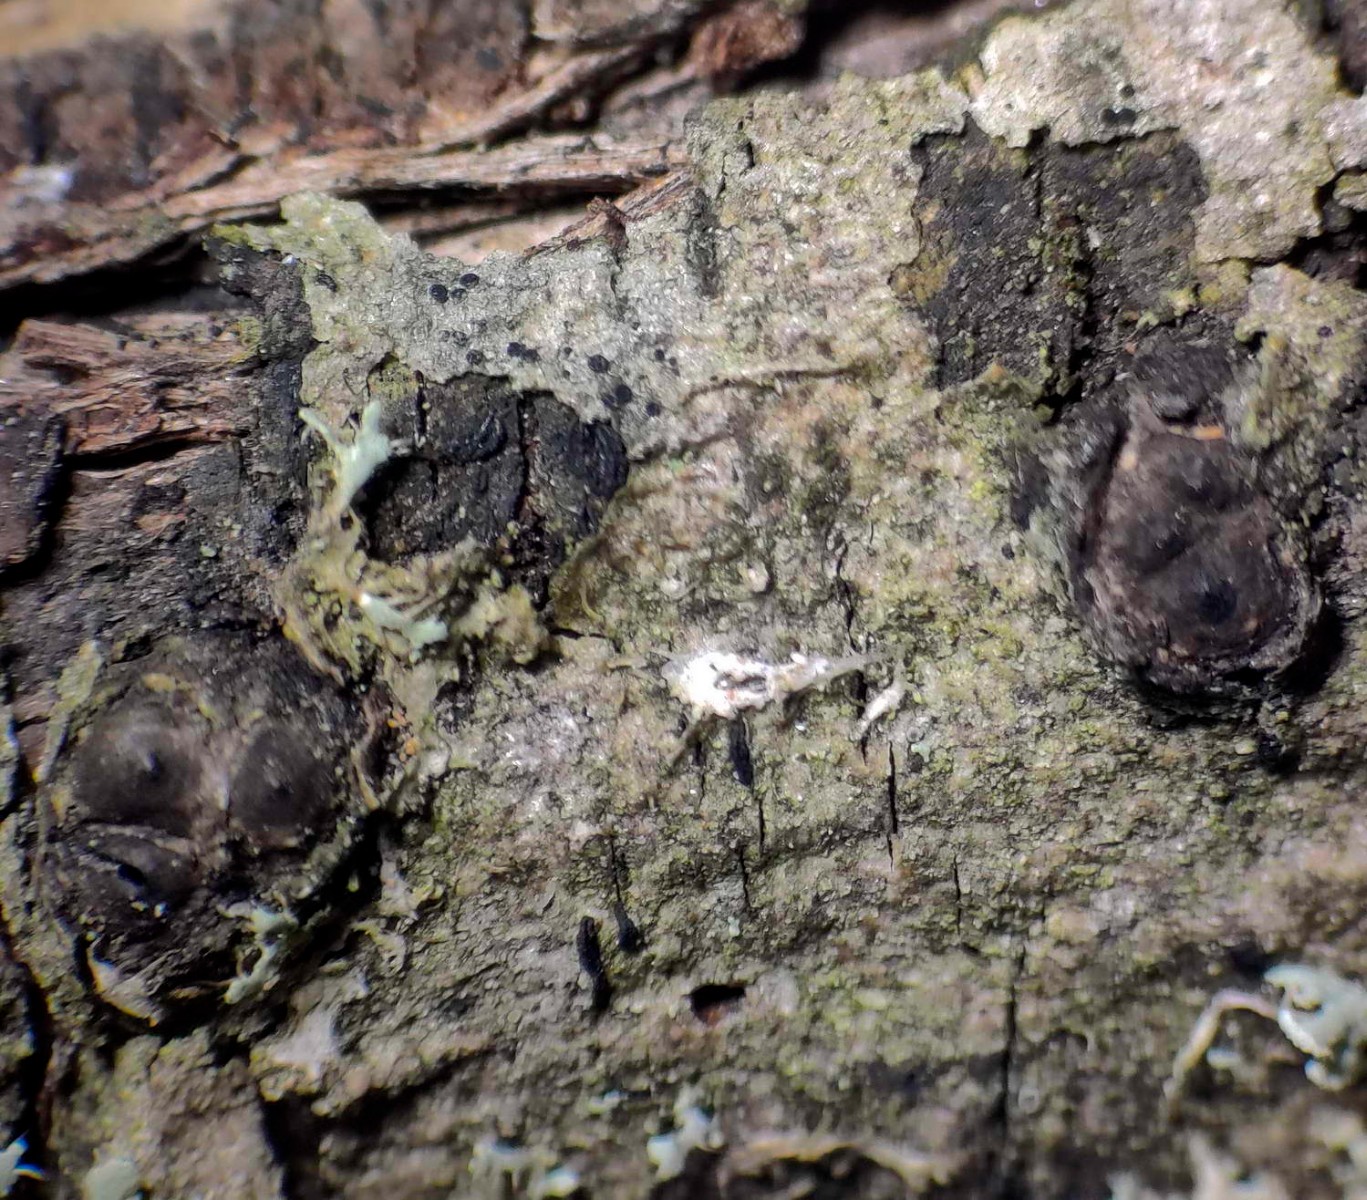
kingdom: Fungi
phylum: Ascomycota
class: Sordariomycetes
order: Xylariales
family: Xylariaceae
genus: Entoleuca
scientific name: Entoleuca mammata
